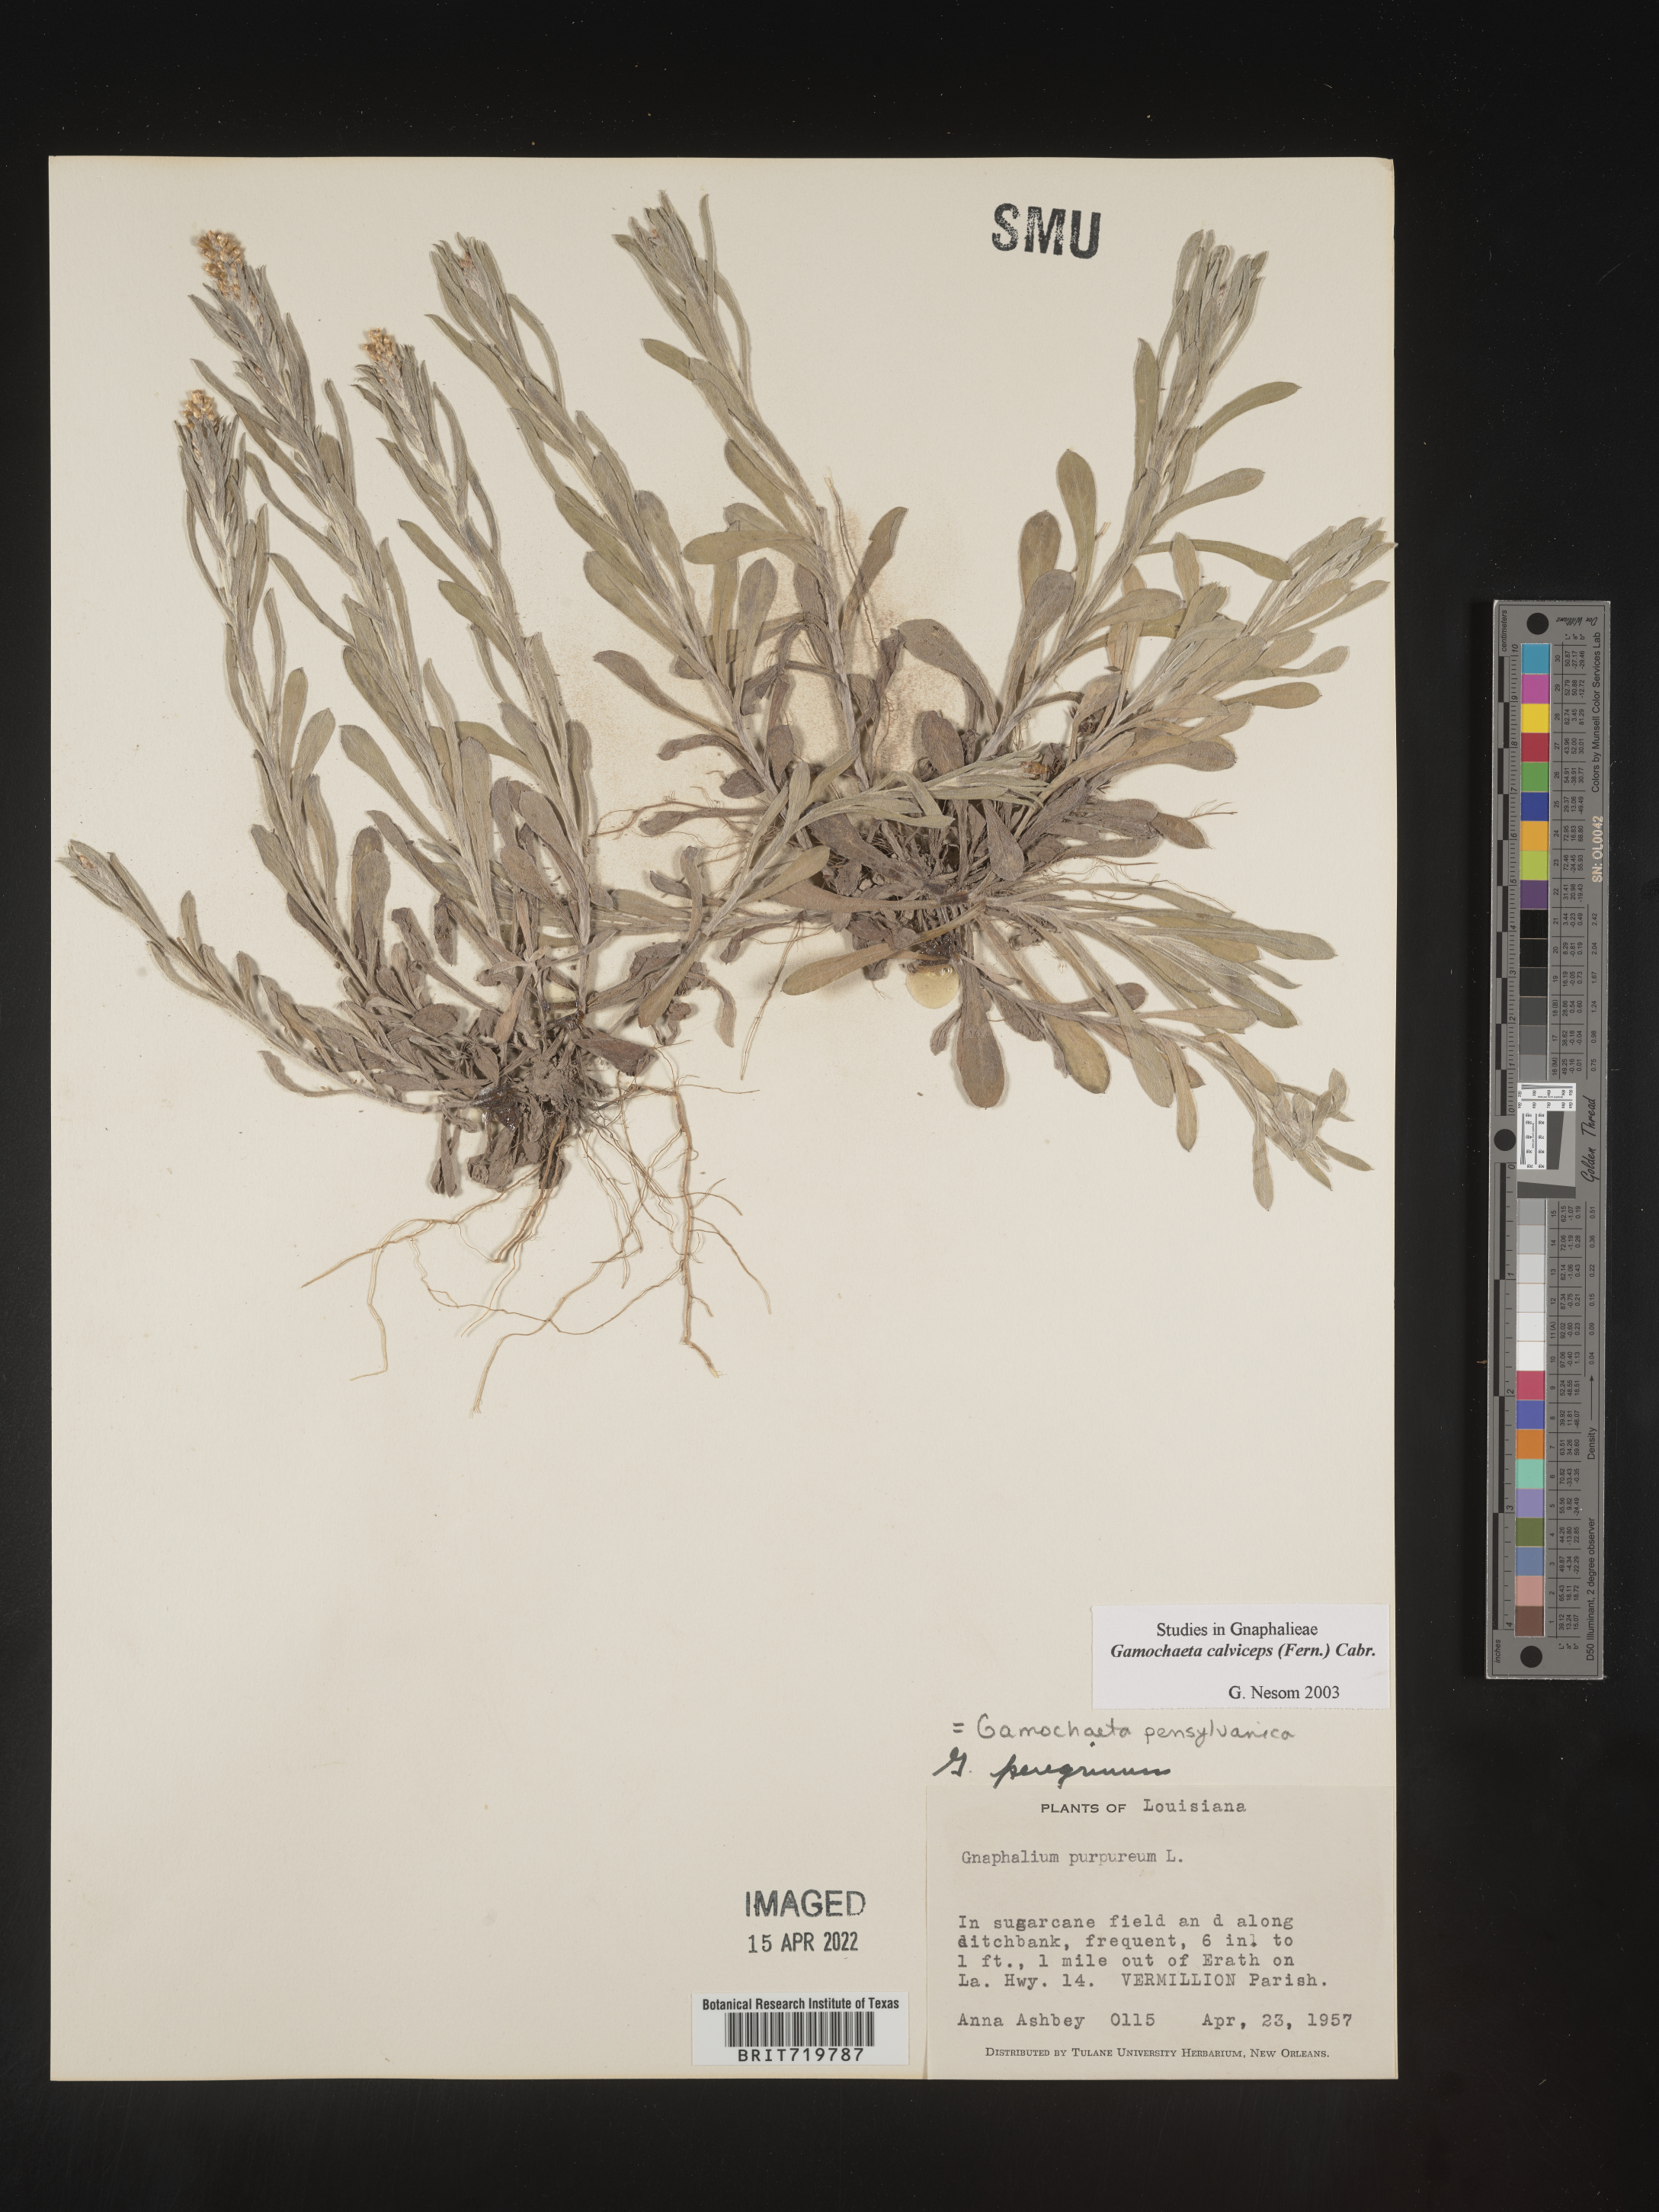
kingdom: Plantae
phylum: Tracheophyta
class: Magnoliopsida
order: Asterales
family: Asteraceae
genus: Gamochaeta
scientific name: Gamochaeta calviceps
